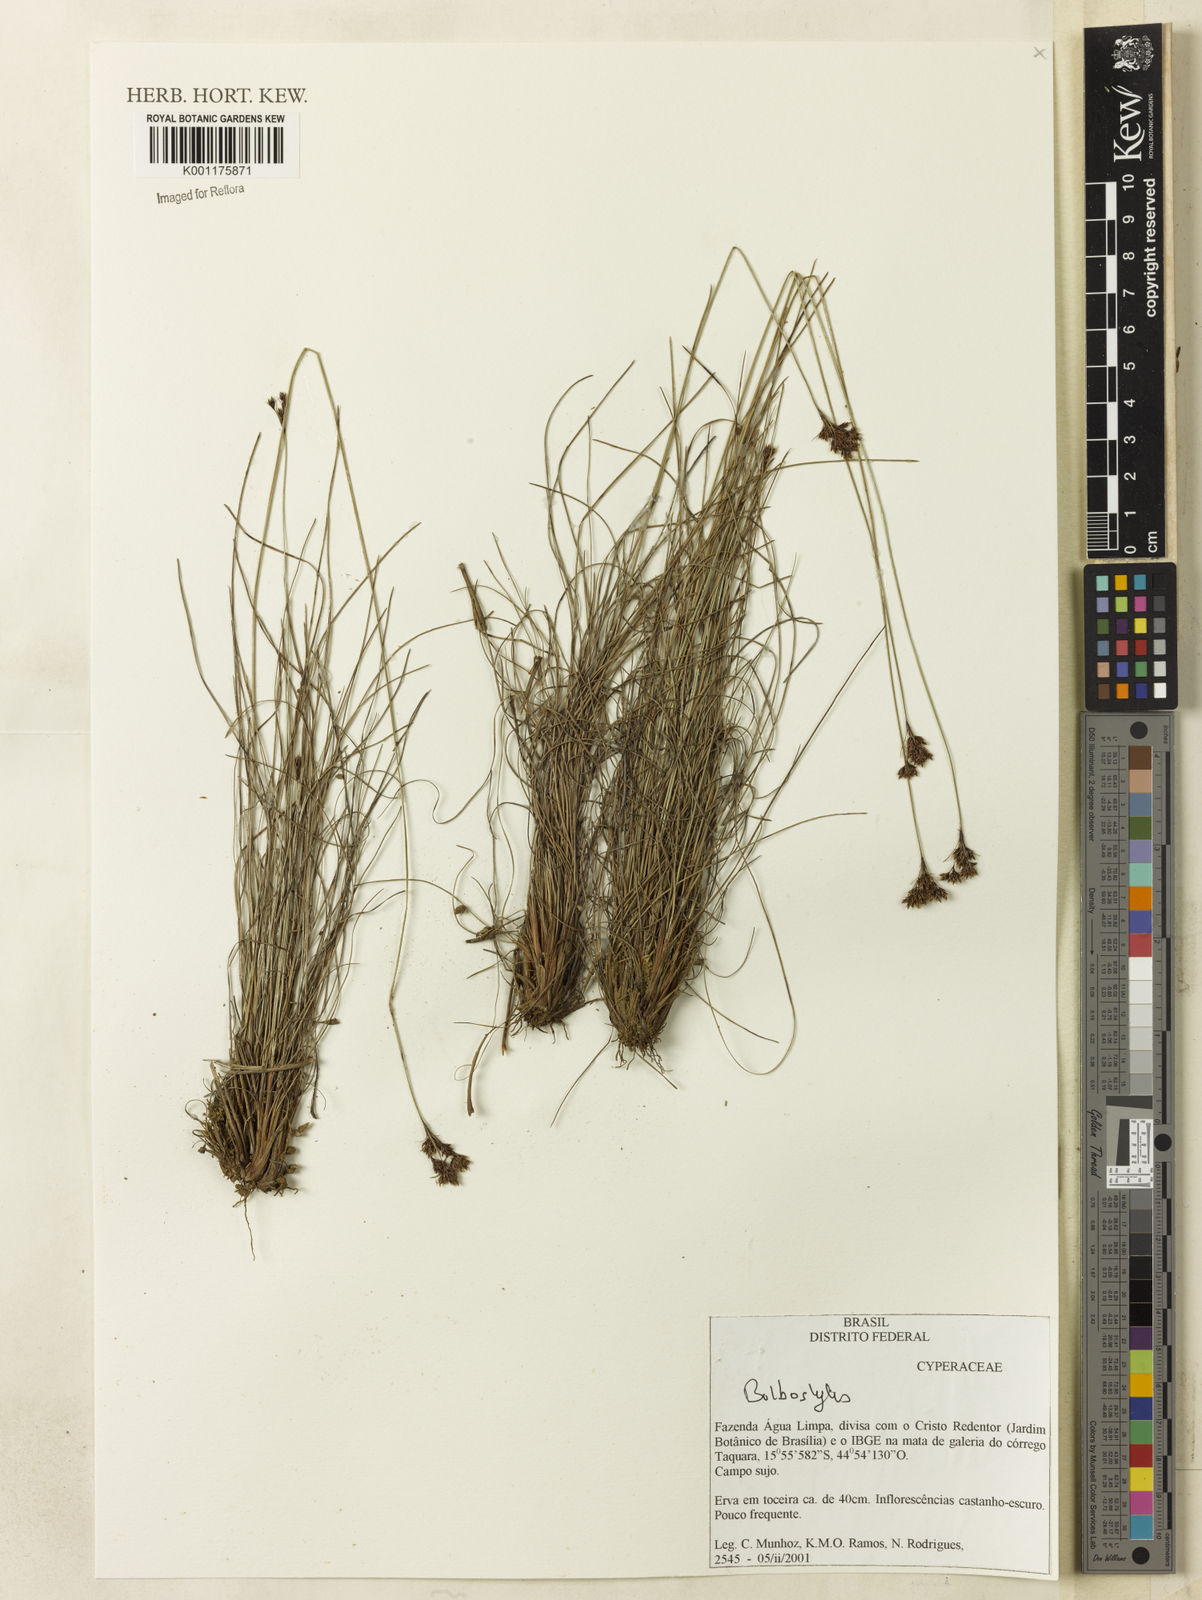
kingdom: Plantae
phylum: Tracheophyta
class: Liliopsida
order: Poales
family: Cyperaceae
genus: Bulbostylis
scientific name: Bulbostylis
